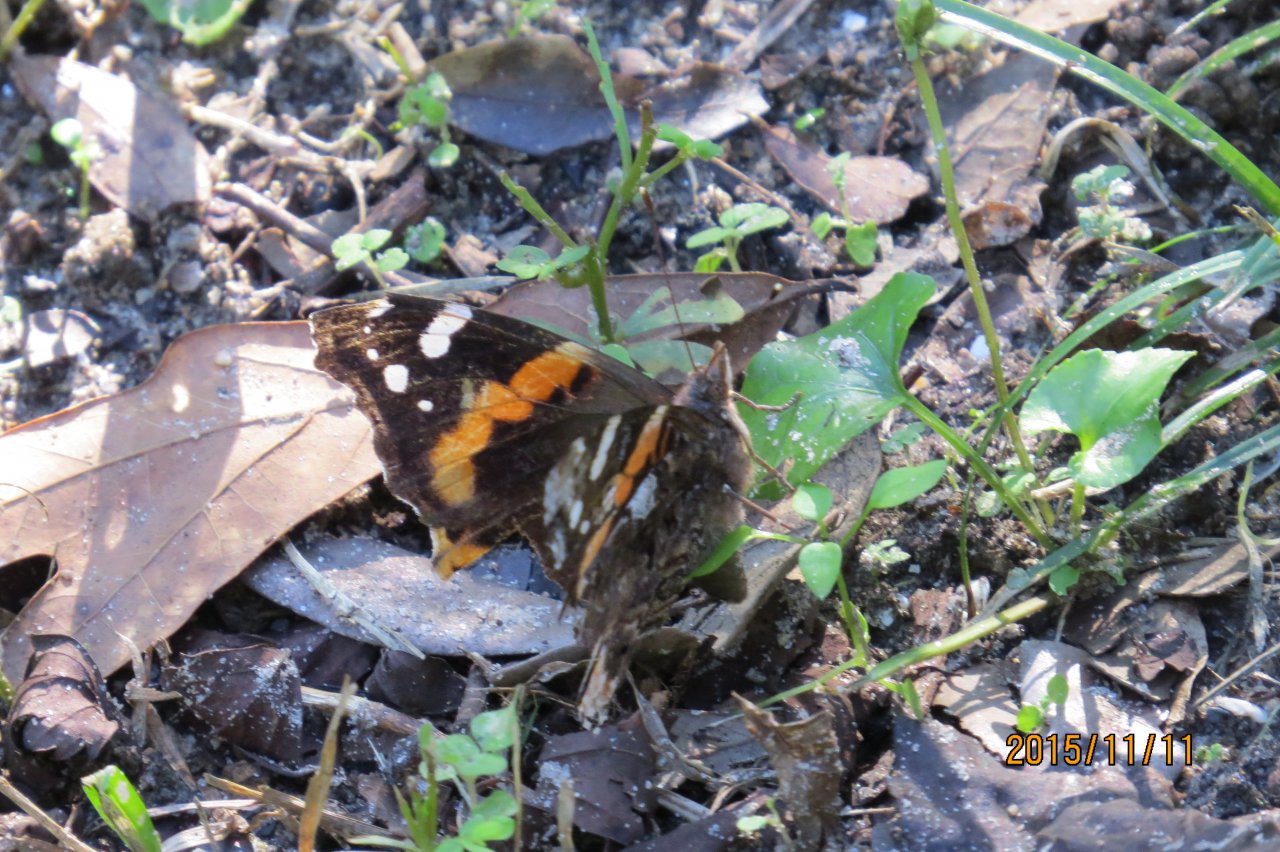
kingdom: Animalia
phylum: Arthropoda
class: Insecta
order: Lepidoptera
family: Nymphalidae
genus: Vanessa
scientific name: Vanessa atalanta
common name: Red Admiral
